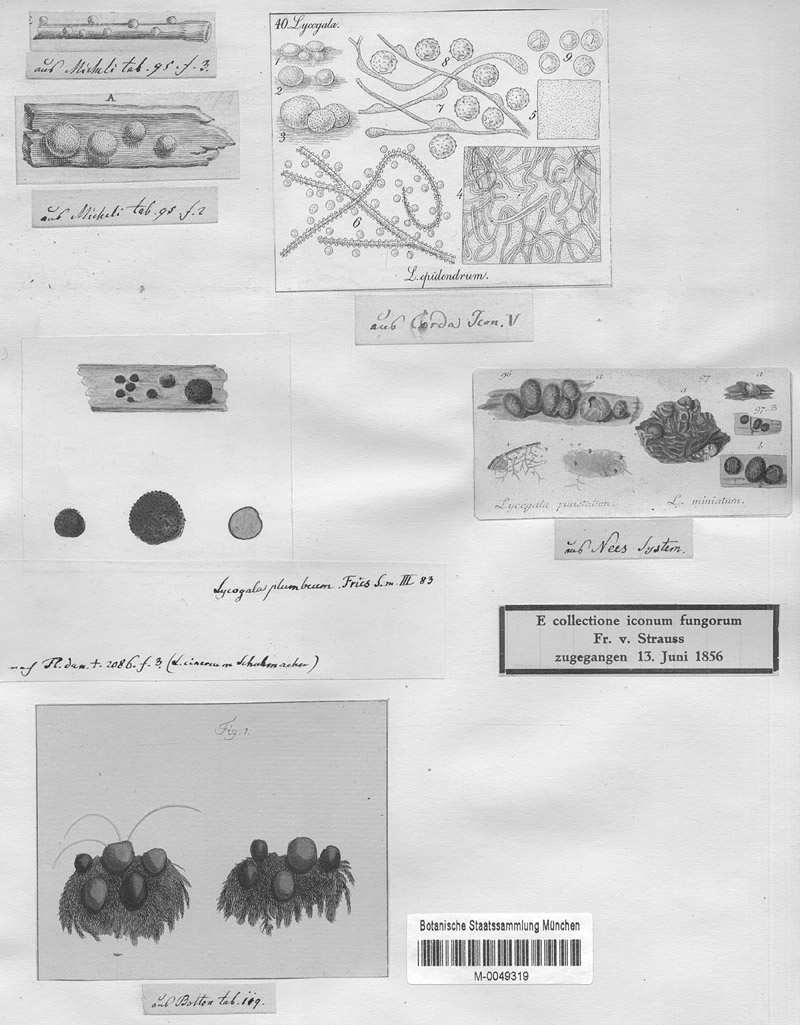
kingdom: Protozoa
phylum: Mycetozoa
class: Myxomycetes
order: Cribrariales
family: Tubiferaceae
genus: Lycogala
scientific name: Lycogala epidendrum
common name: Wolf's milk
